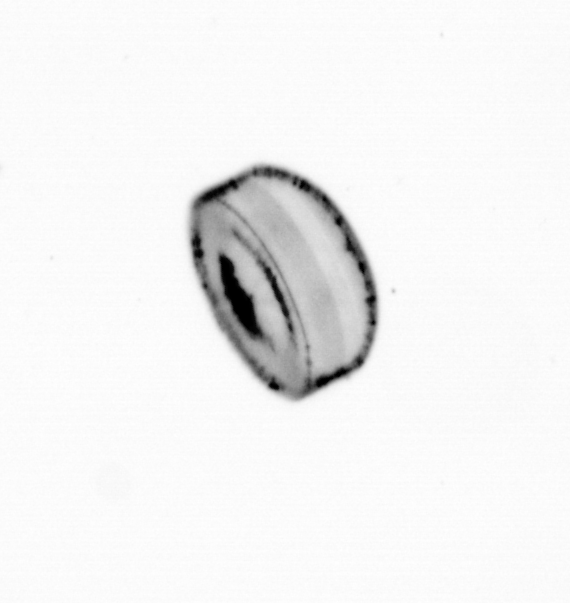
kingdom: Chromista
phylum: Ochrophyta
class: Bacillariophyceae
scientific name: Bacillariophyceae
